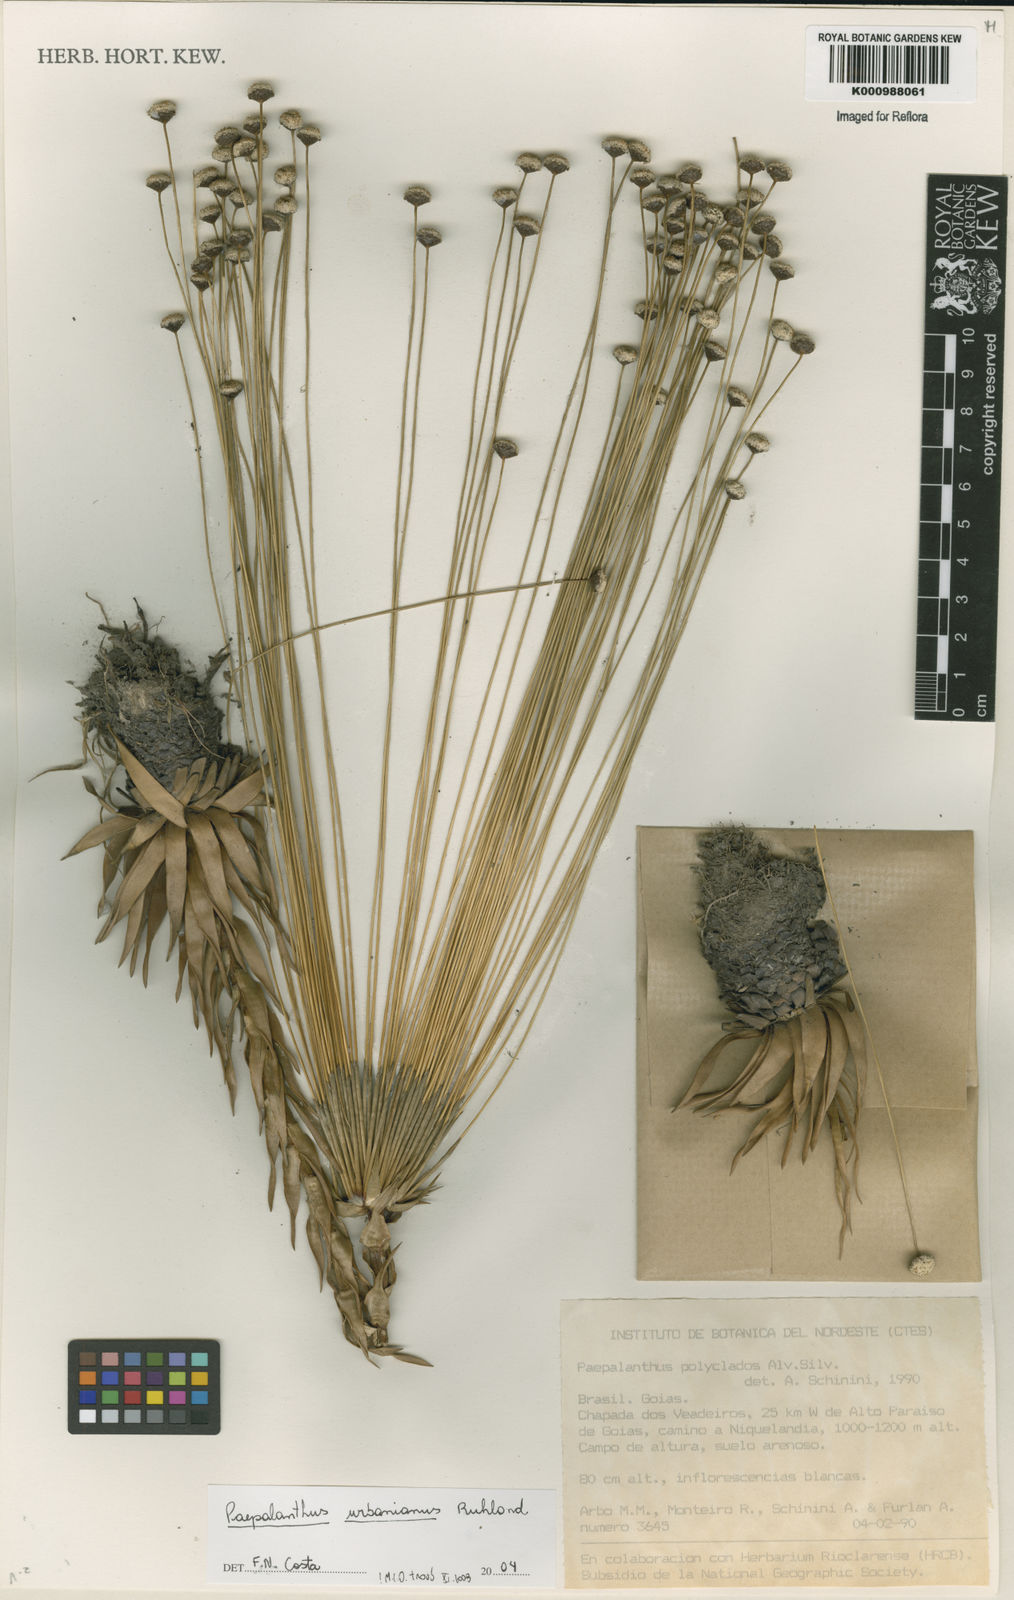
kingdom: Plantae
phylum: Tracheophyta
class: Liliopsida
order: Poales
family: Eriocaulaceae
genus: Paepalanthus
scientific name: Paepalanthus urbanianus
